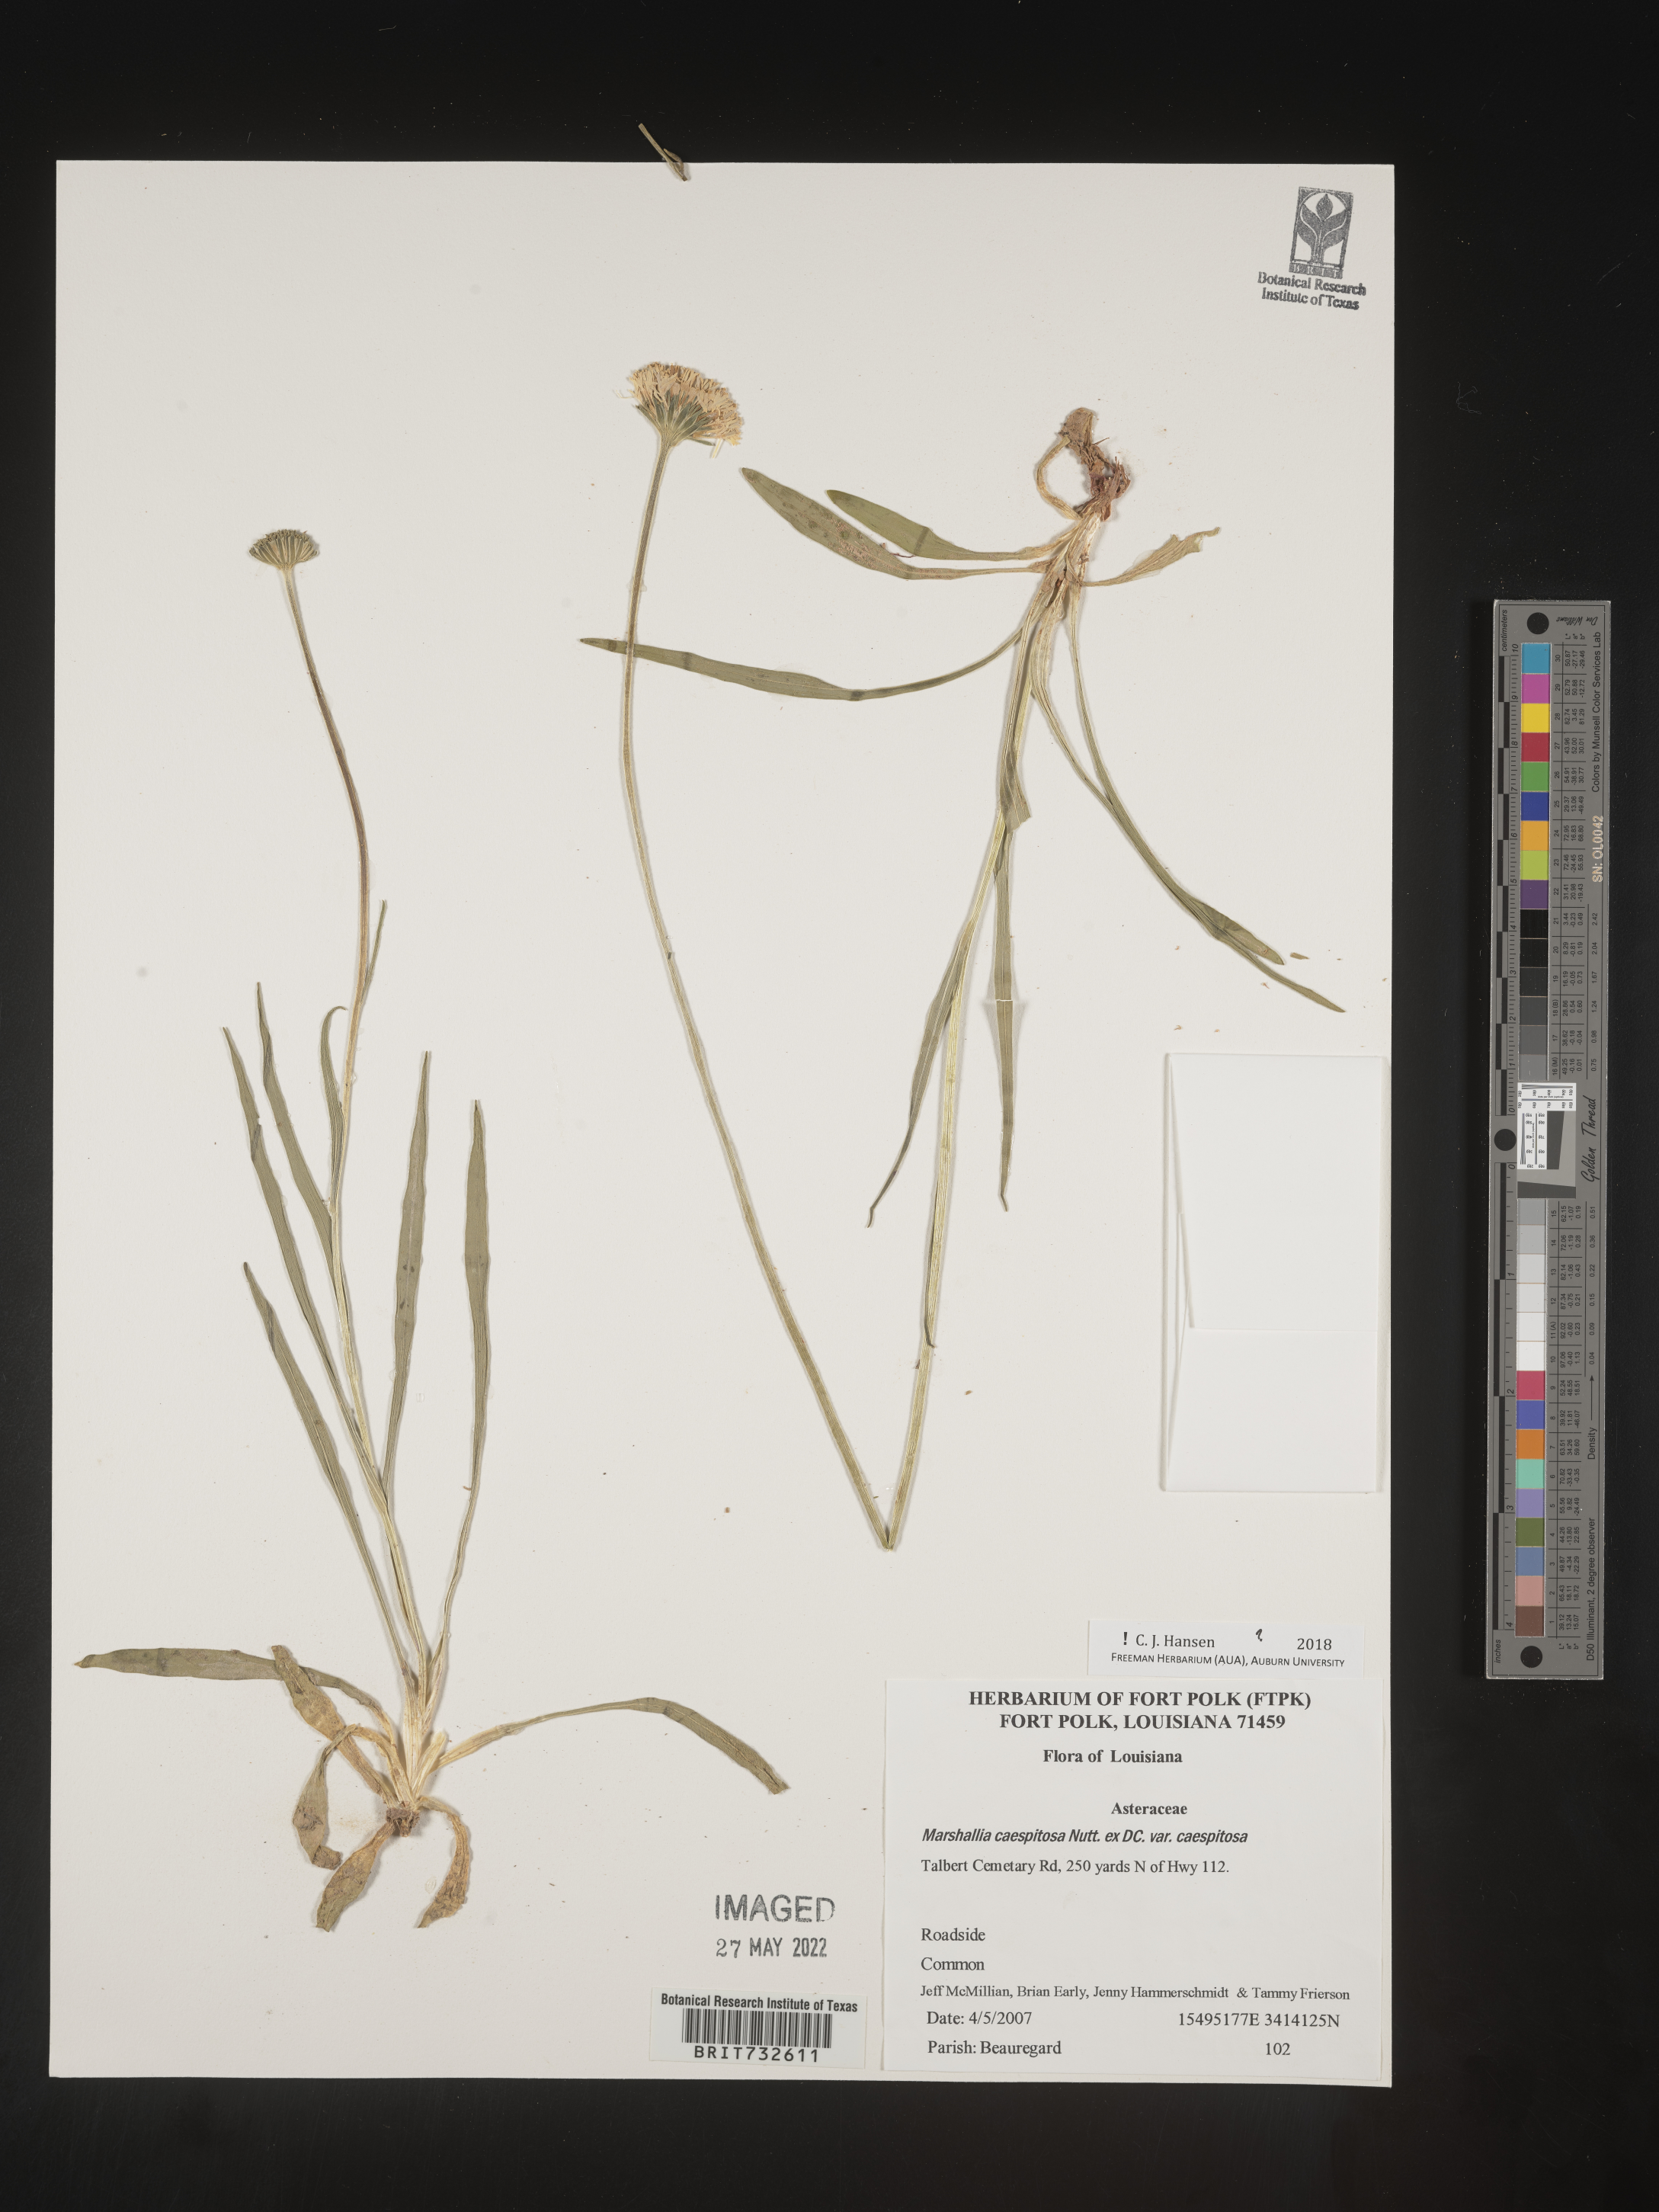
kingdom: Plantae
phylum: Tracheophyta
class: Magnoliopsida
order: Asterales
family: Asteraceae
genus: Marshallia
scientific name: Marshallia caespitosa
